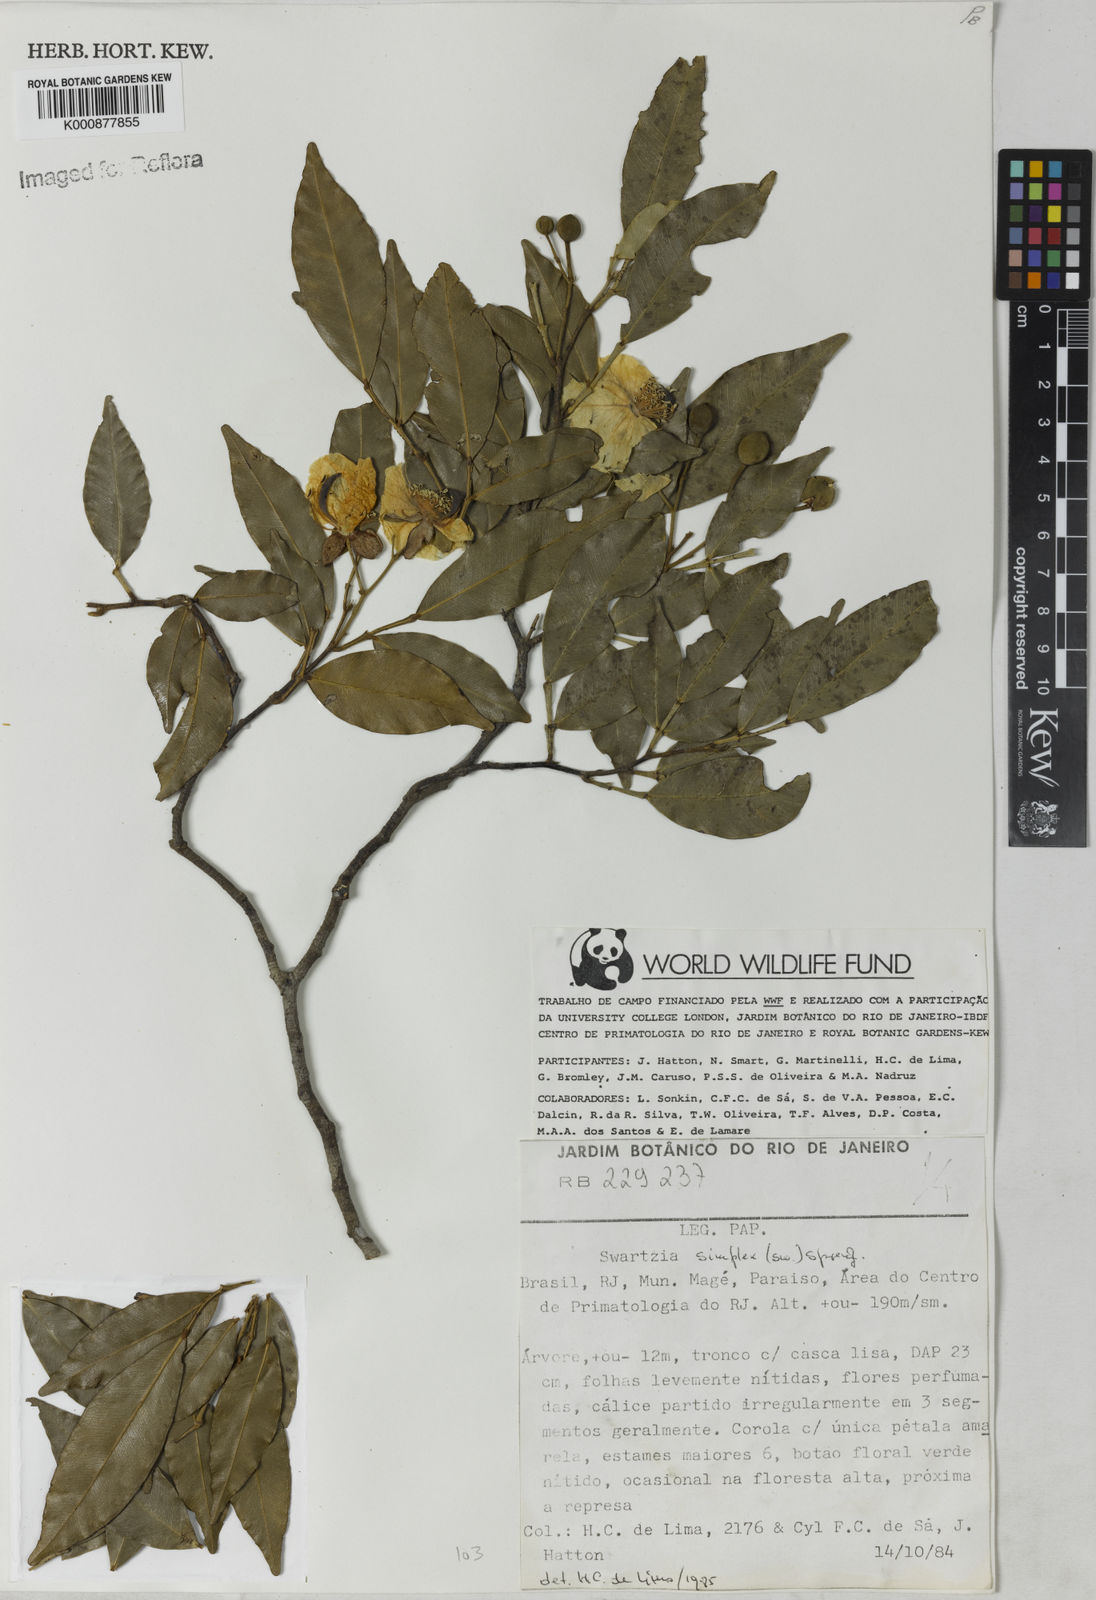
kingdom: Plantae
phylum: Tracheophyta
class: Magnoliopsida
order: Fabales
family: Fabaceae
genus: Swartzia
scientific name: Swartzia simplex
